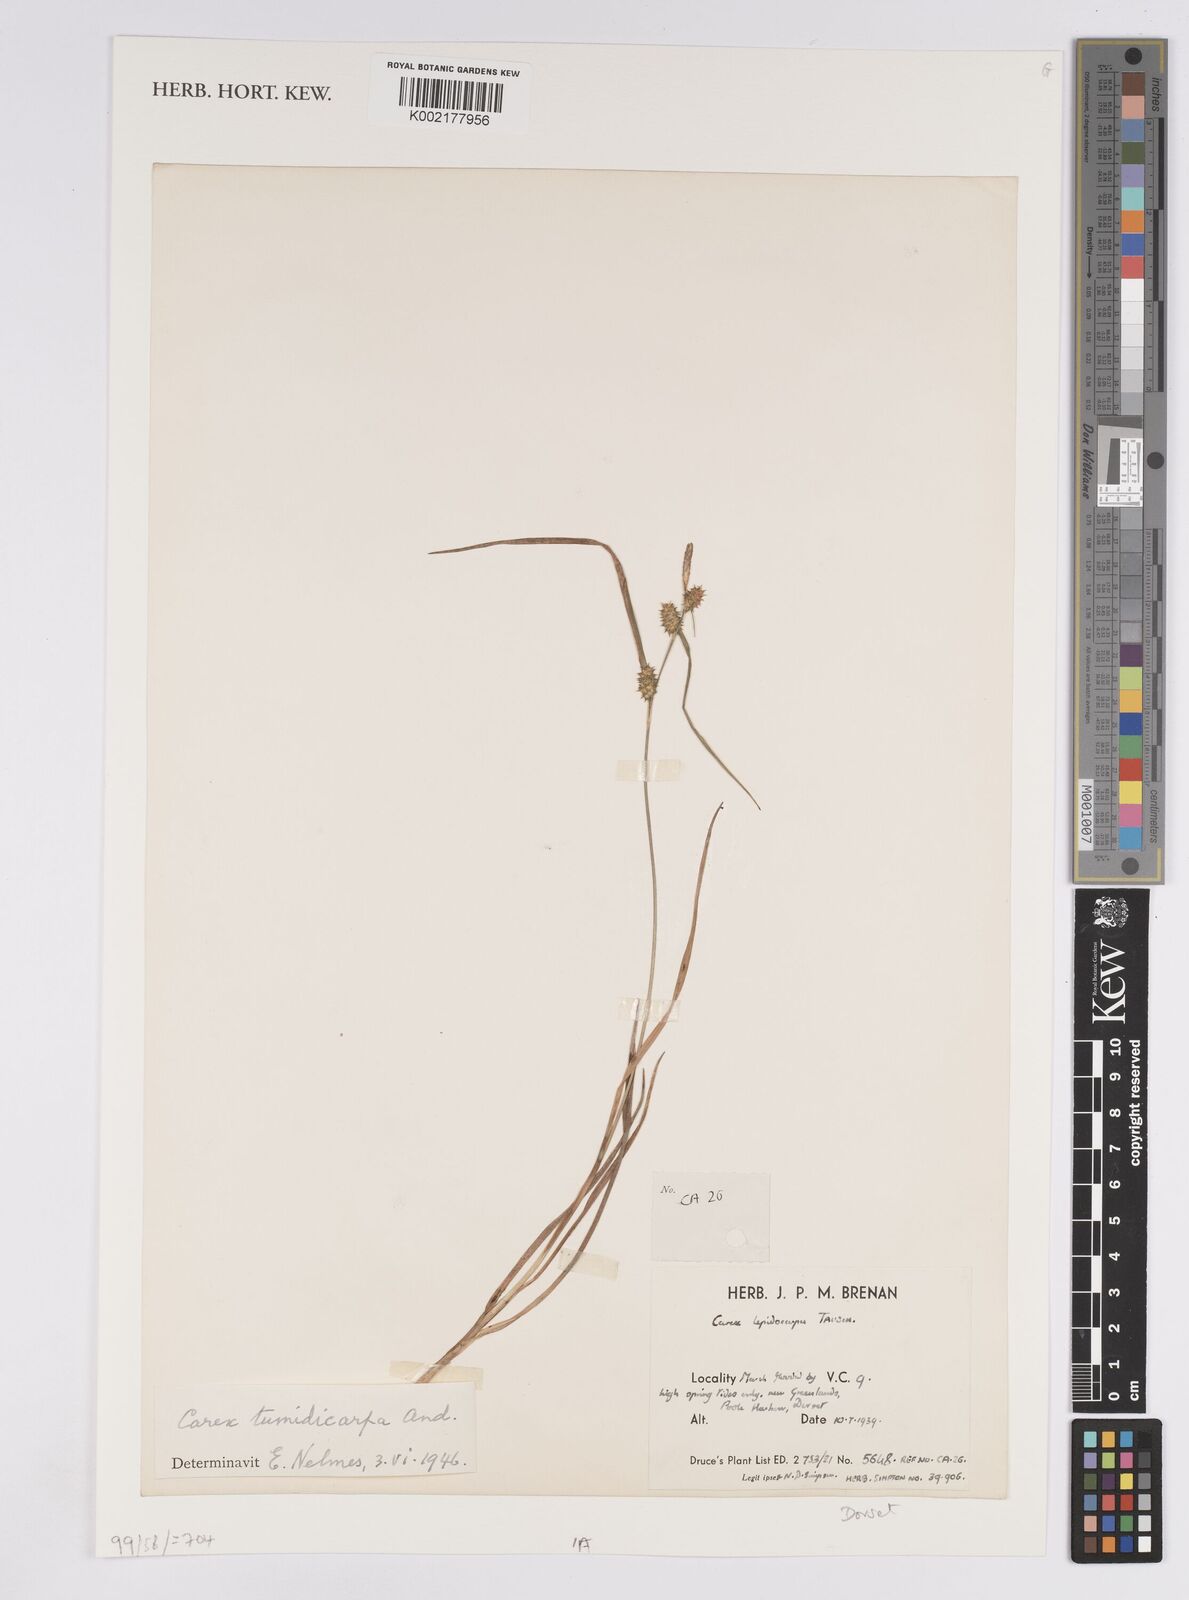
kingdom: Plantae
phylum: Tracheophyta
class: Liliopsida
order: Poales
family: Cyperaceae
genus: Carex
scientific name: Carex demissa
